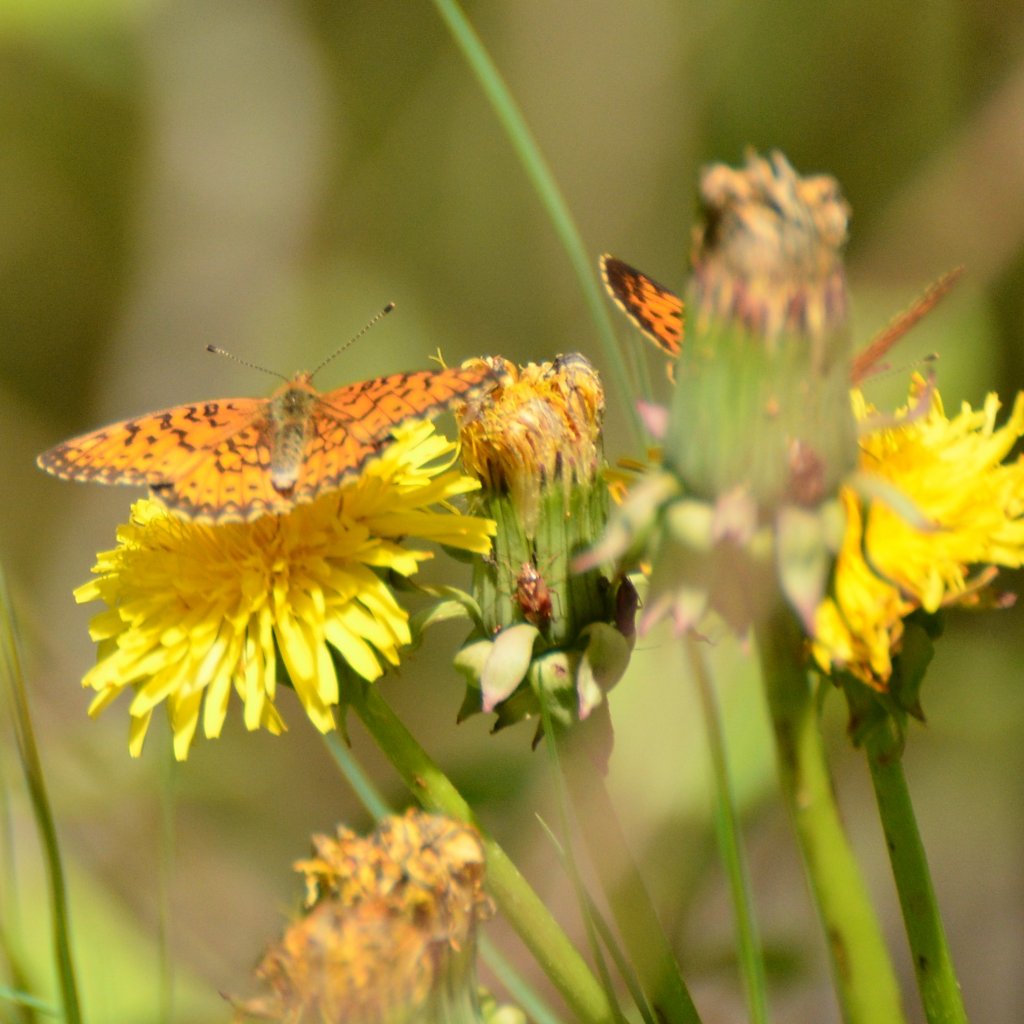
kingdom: Animalia
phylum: Arthropoda
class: Insecta
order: Lepidoptera
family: Nymphalidae
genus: Boloria
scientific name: Boloria selene
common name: Silver-bordered Fritillary
